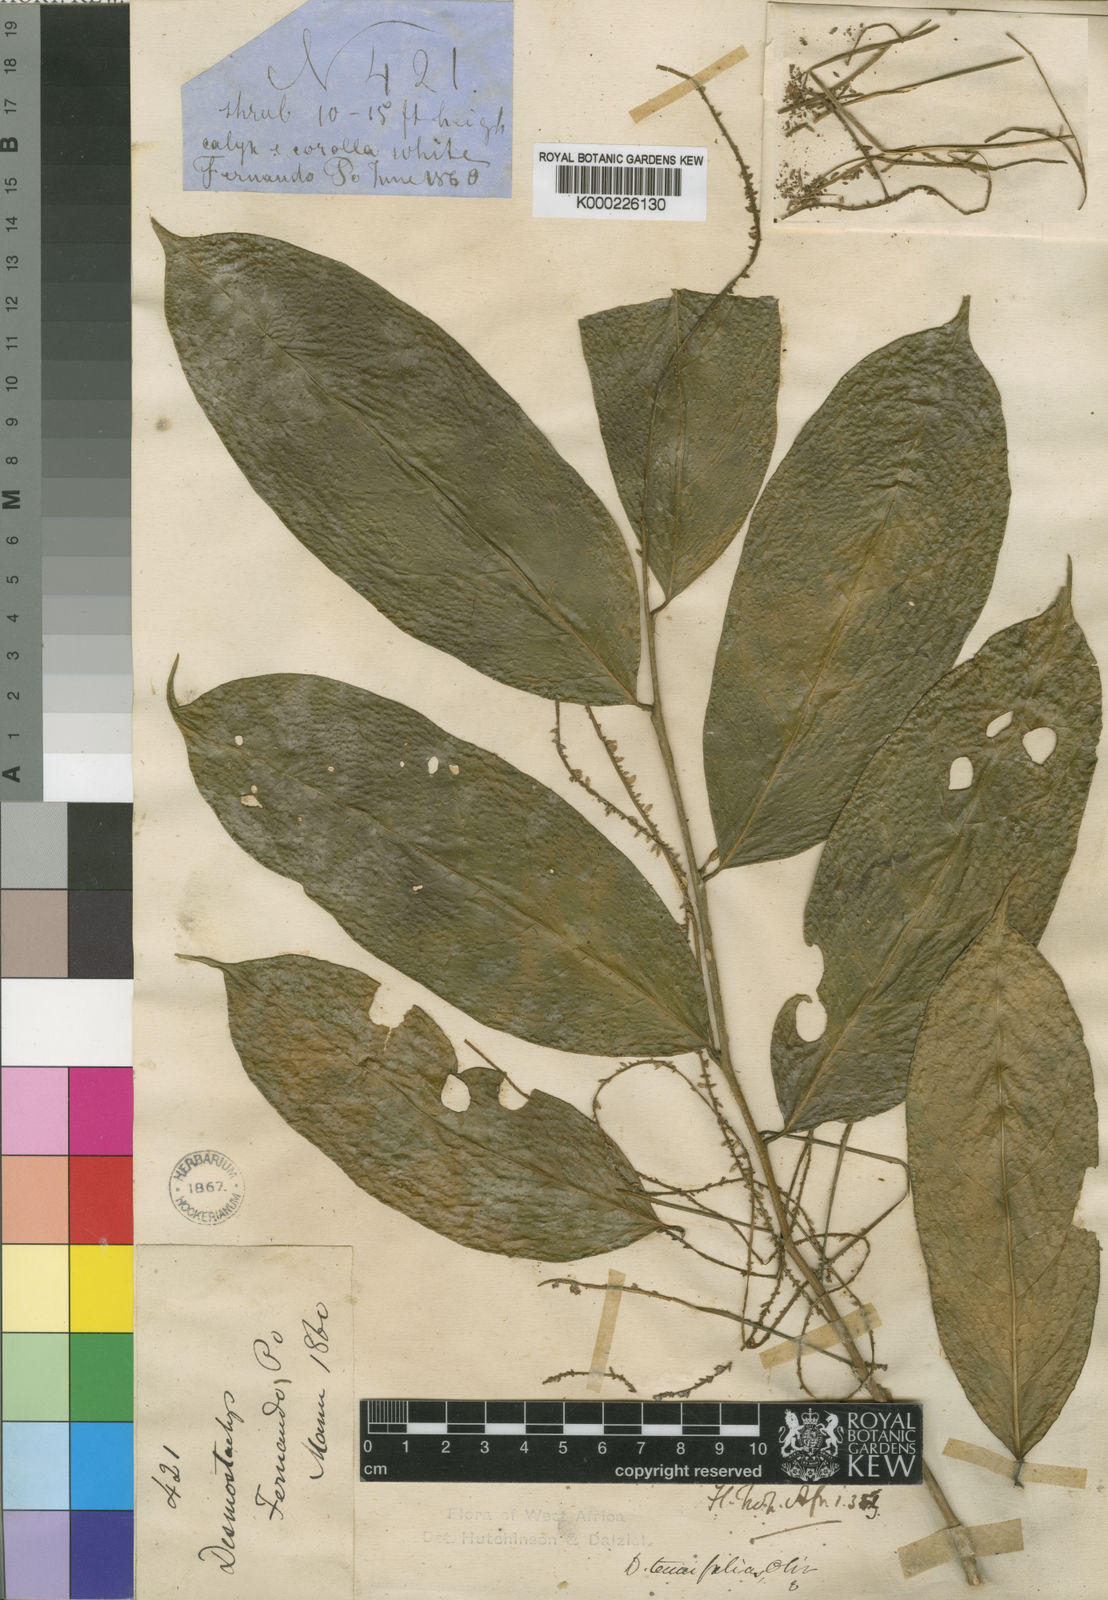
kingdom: Plantae
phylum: Tracheophyta
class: Magnoliopsida
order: Icacinales
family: Icacinaceae
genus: Vadensea
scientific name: Vadensea tenuifolia
